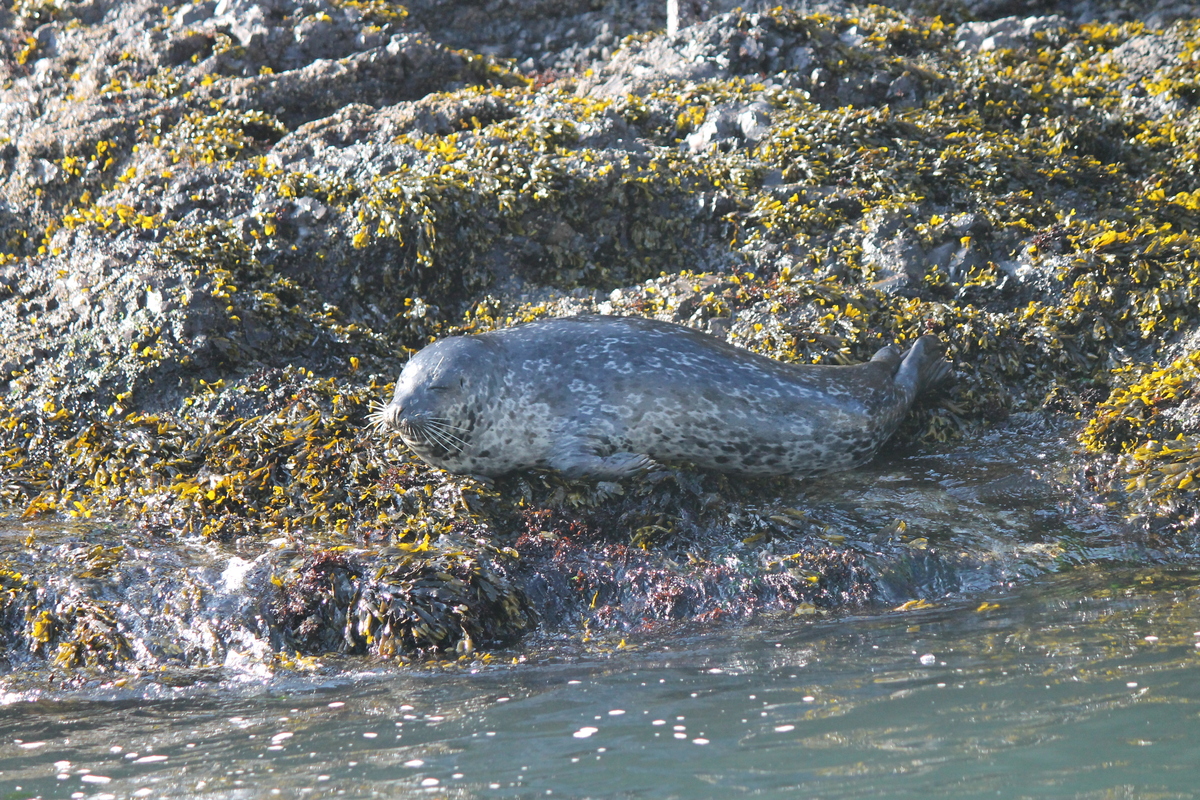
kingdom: Animalia
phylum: Chordata
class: Mammalia
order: Carnivora
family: Phocidae
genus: Phoca
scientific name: Phoca vitulina
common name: Harbor seal
